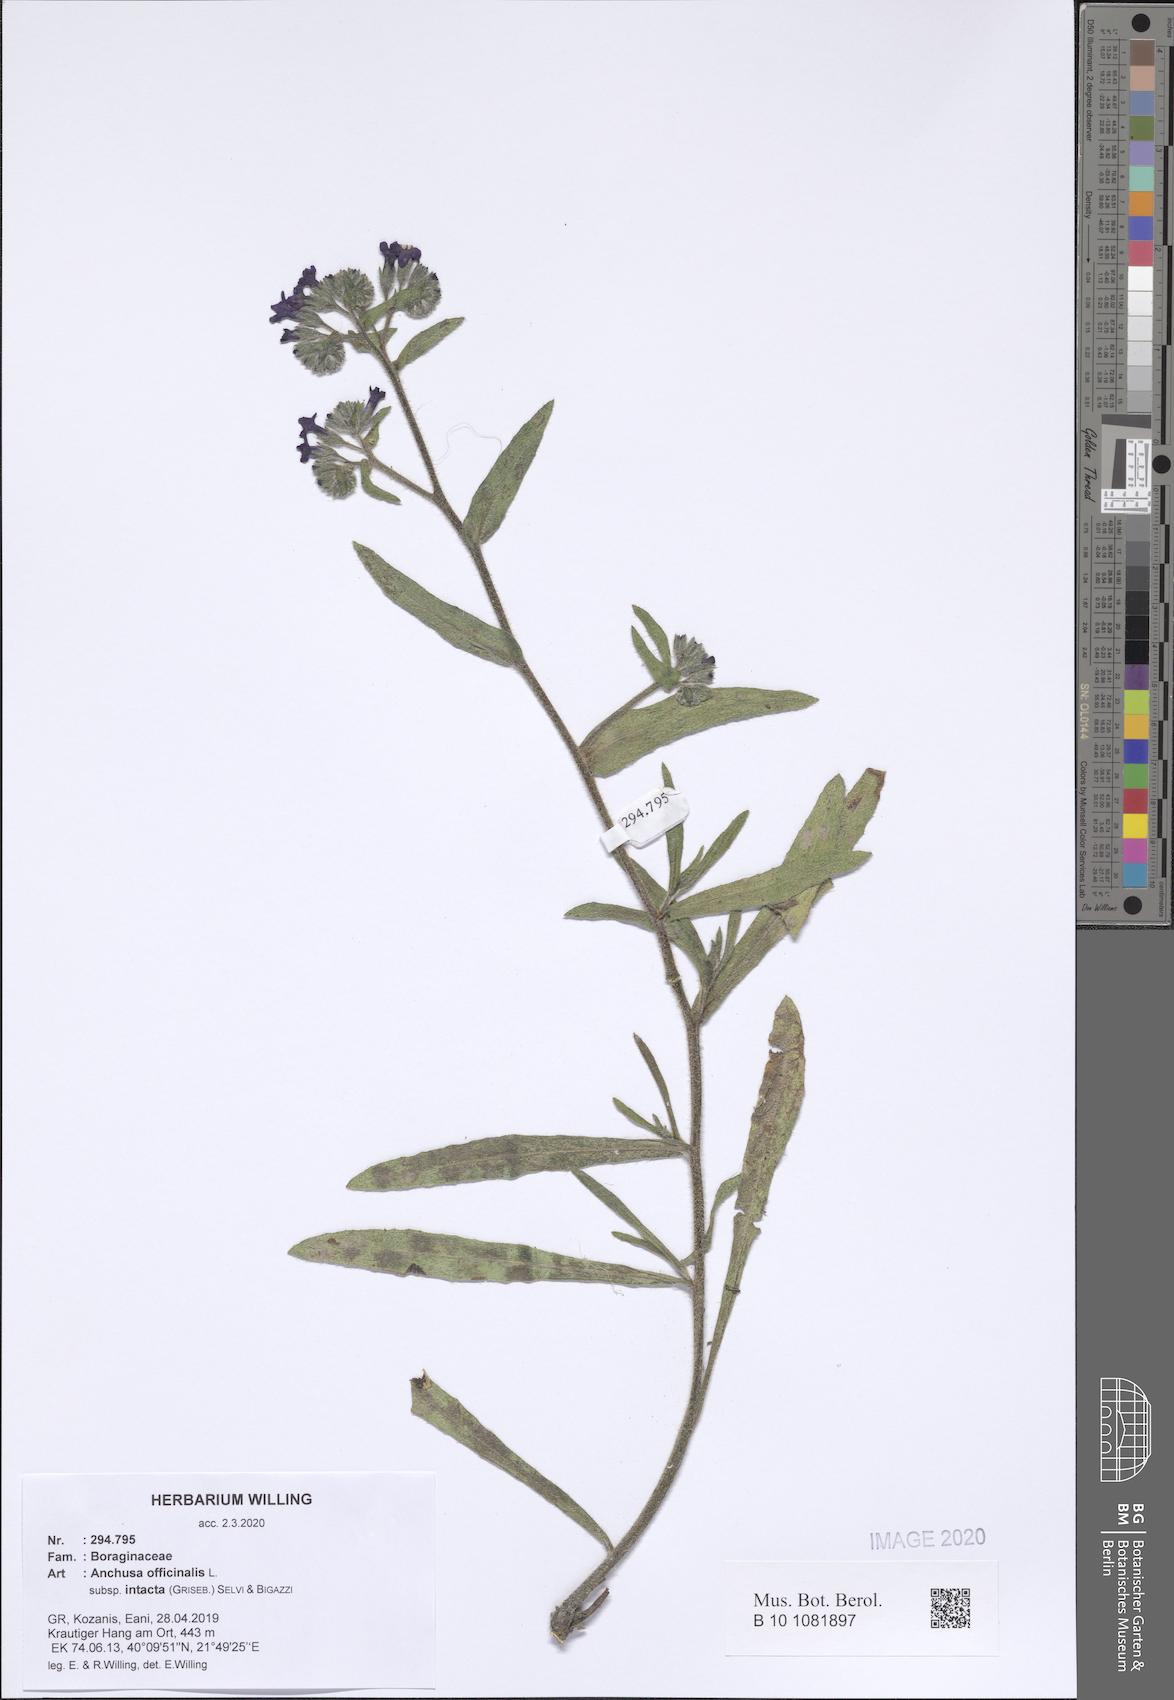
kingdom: Plantae
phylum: Tracheophyta
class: Magnoliopsida
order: Boraginales
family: Boraginaceae
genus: Anchusa
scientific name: Anchusa officinalis
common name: Alkanet
